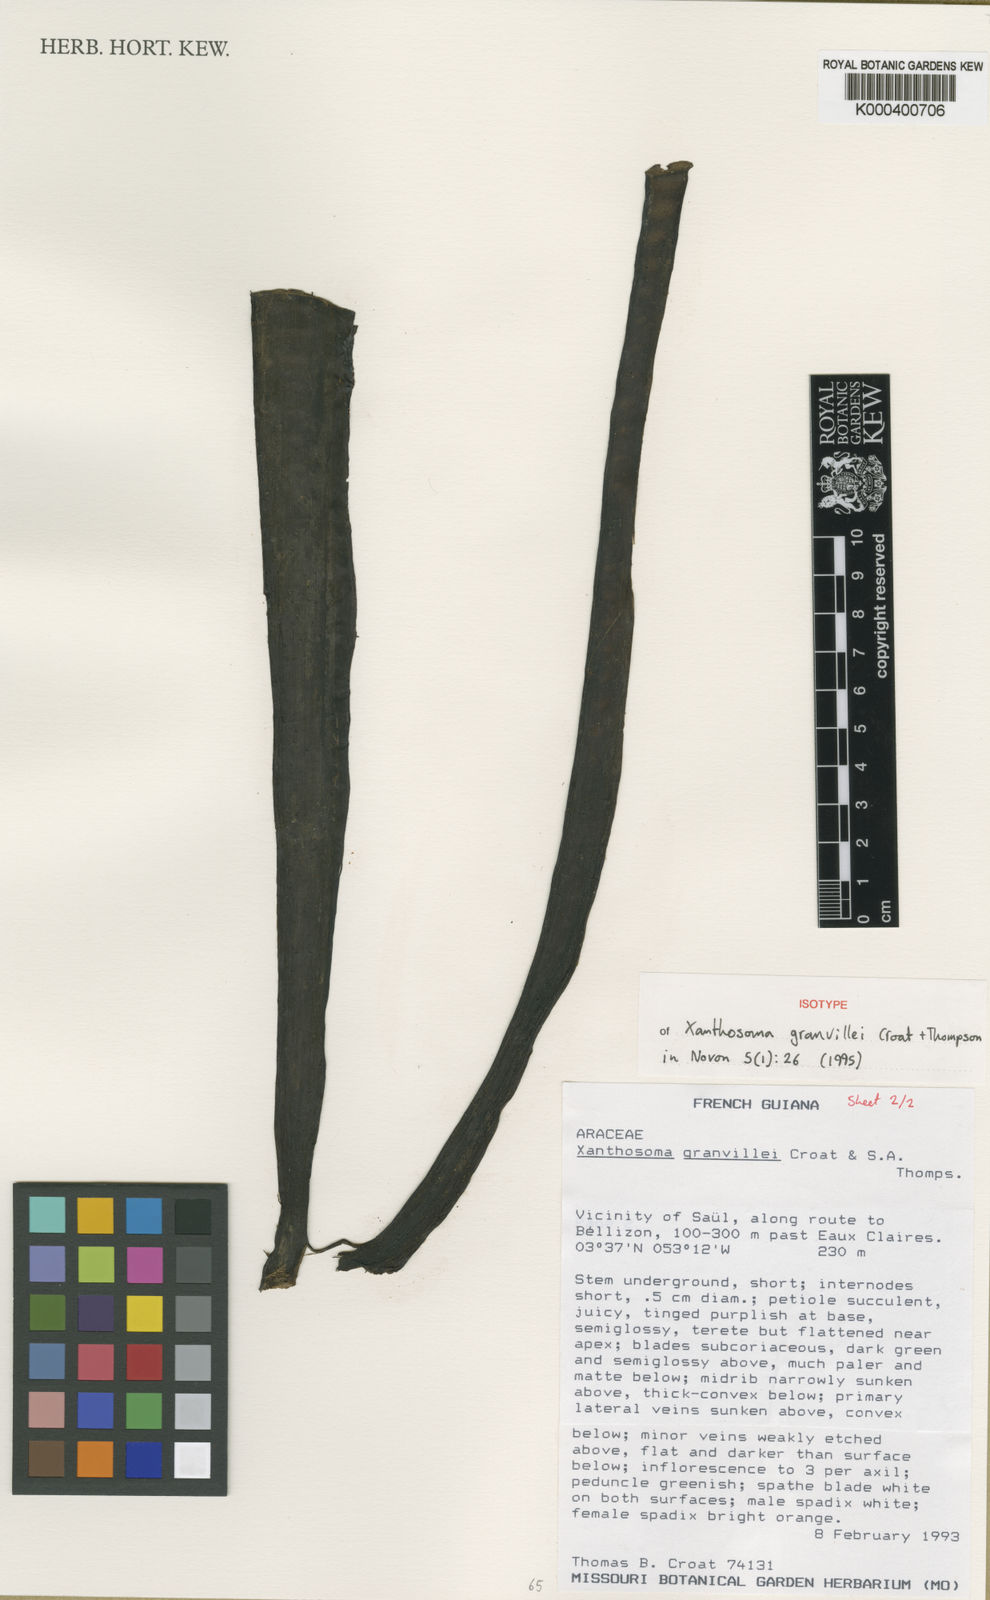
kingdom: Plantae
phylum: Tracheophyta
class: Liliopsida
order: Alismatales
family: Araceae
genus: Xanthosoma
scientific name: Xanthosoma granvillei
